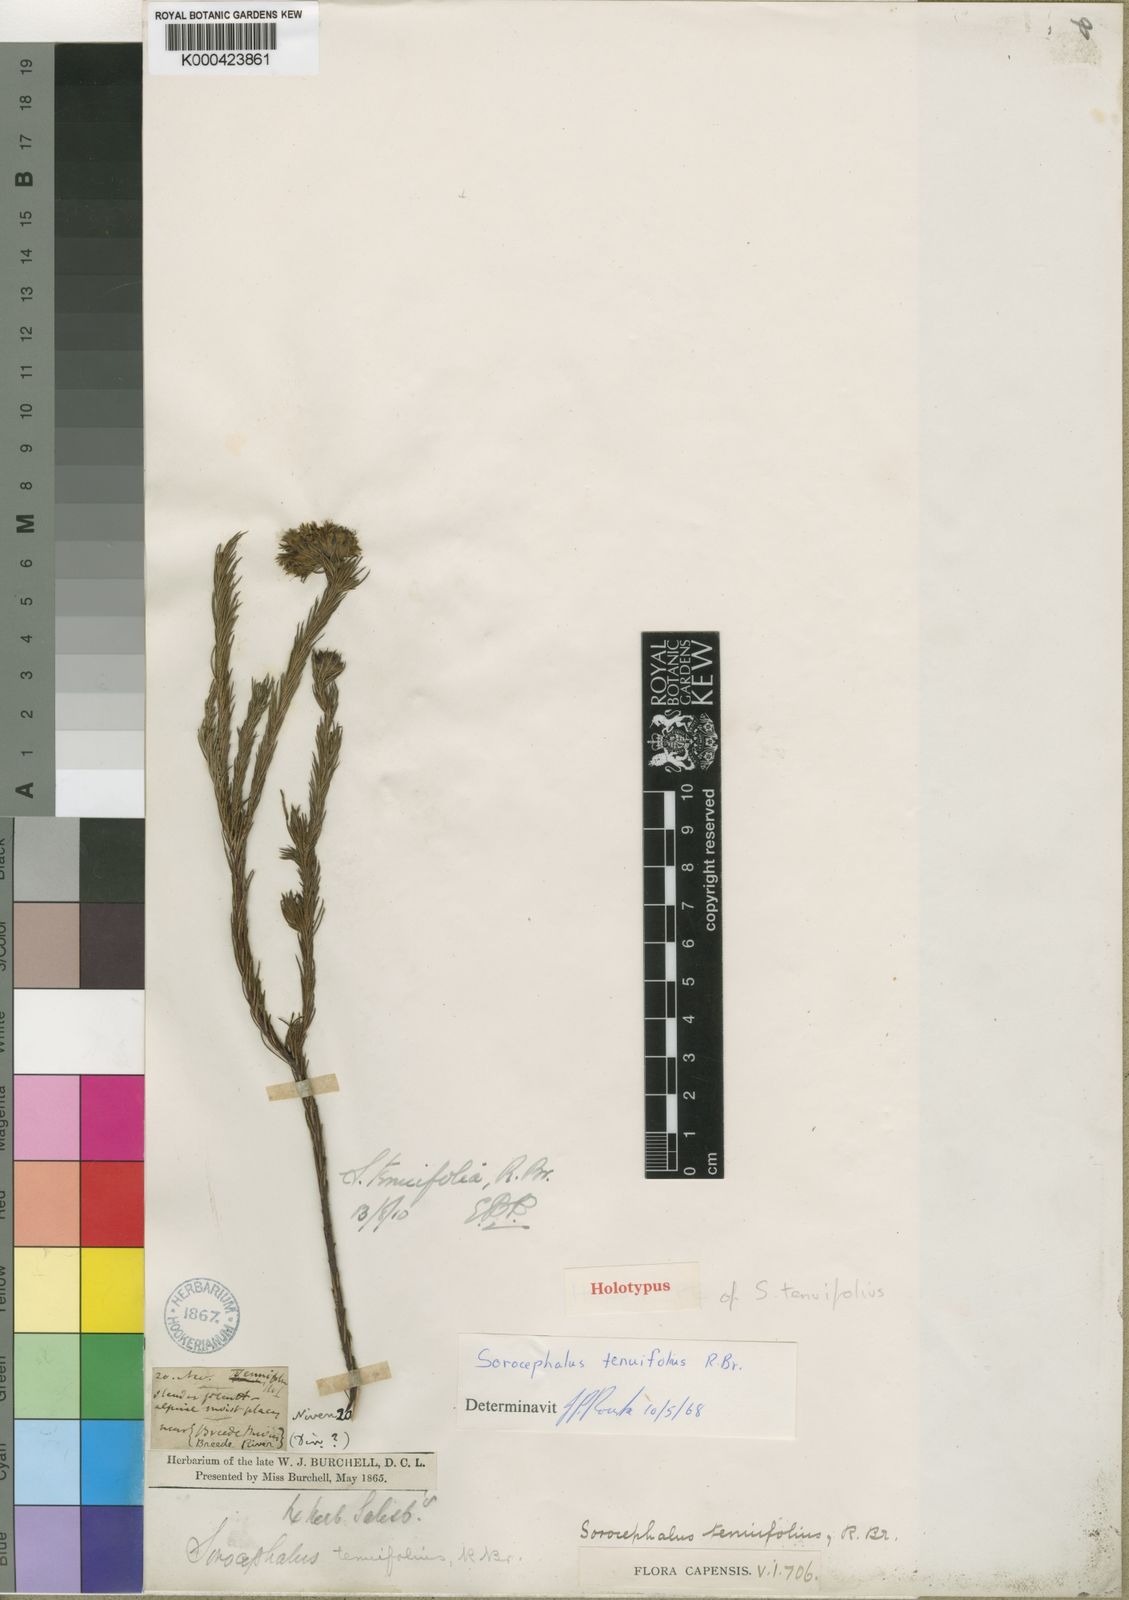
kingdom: Plantae
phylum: Tracheophyta
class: Magnoliopsida
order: Proteales
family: Proteaceae
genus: Sorocephalus
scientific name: Sorocephalus tenuifolius
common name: Diminutive clusterhead
